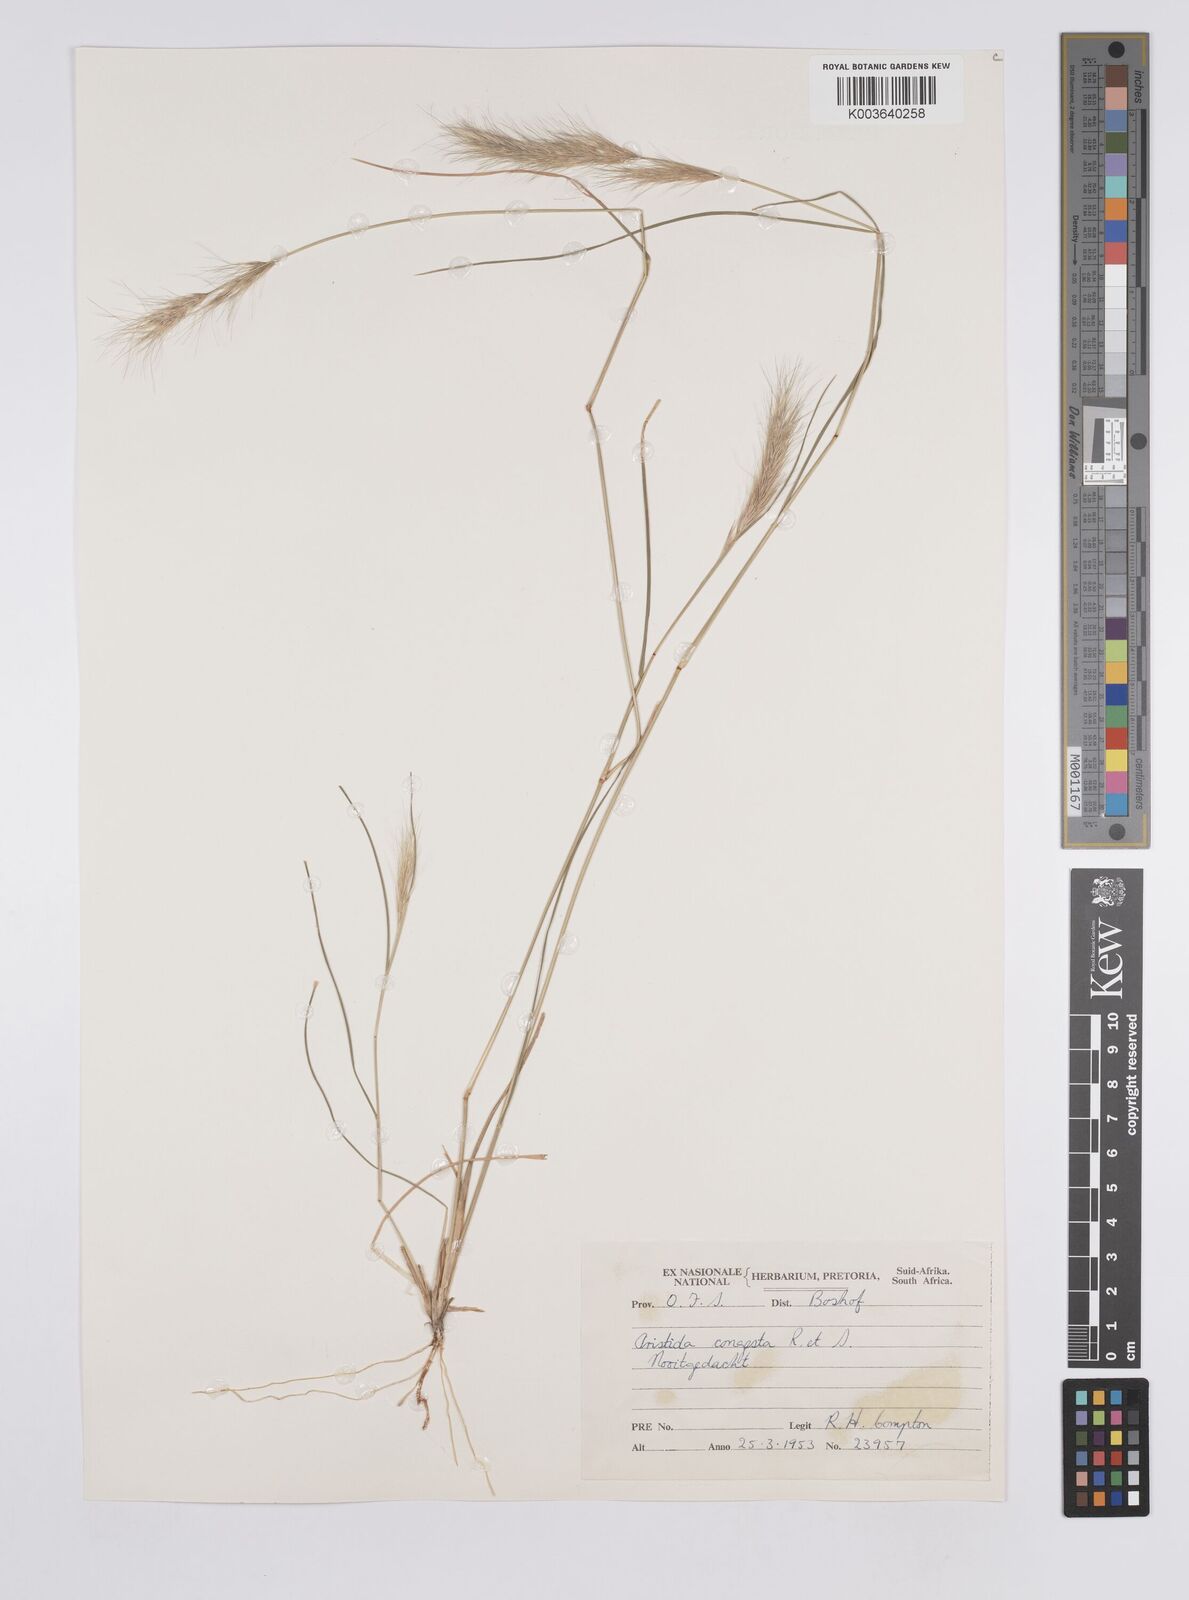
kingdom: Plantae
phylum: Tracheophyta
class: Liliopsida
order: Poales
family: Poaceae
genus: Aristida
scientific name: Aristida congesta
